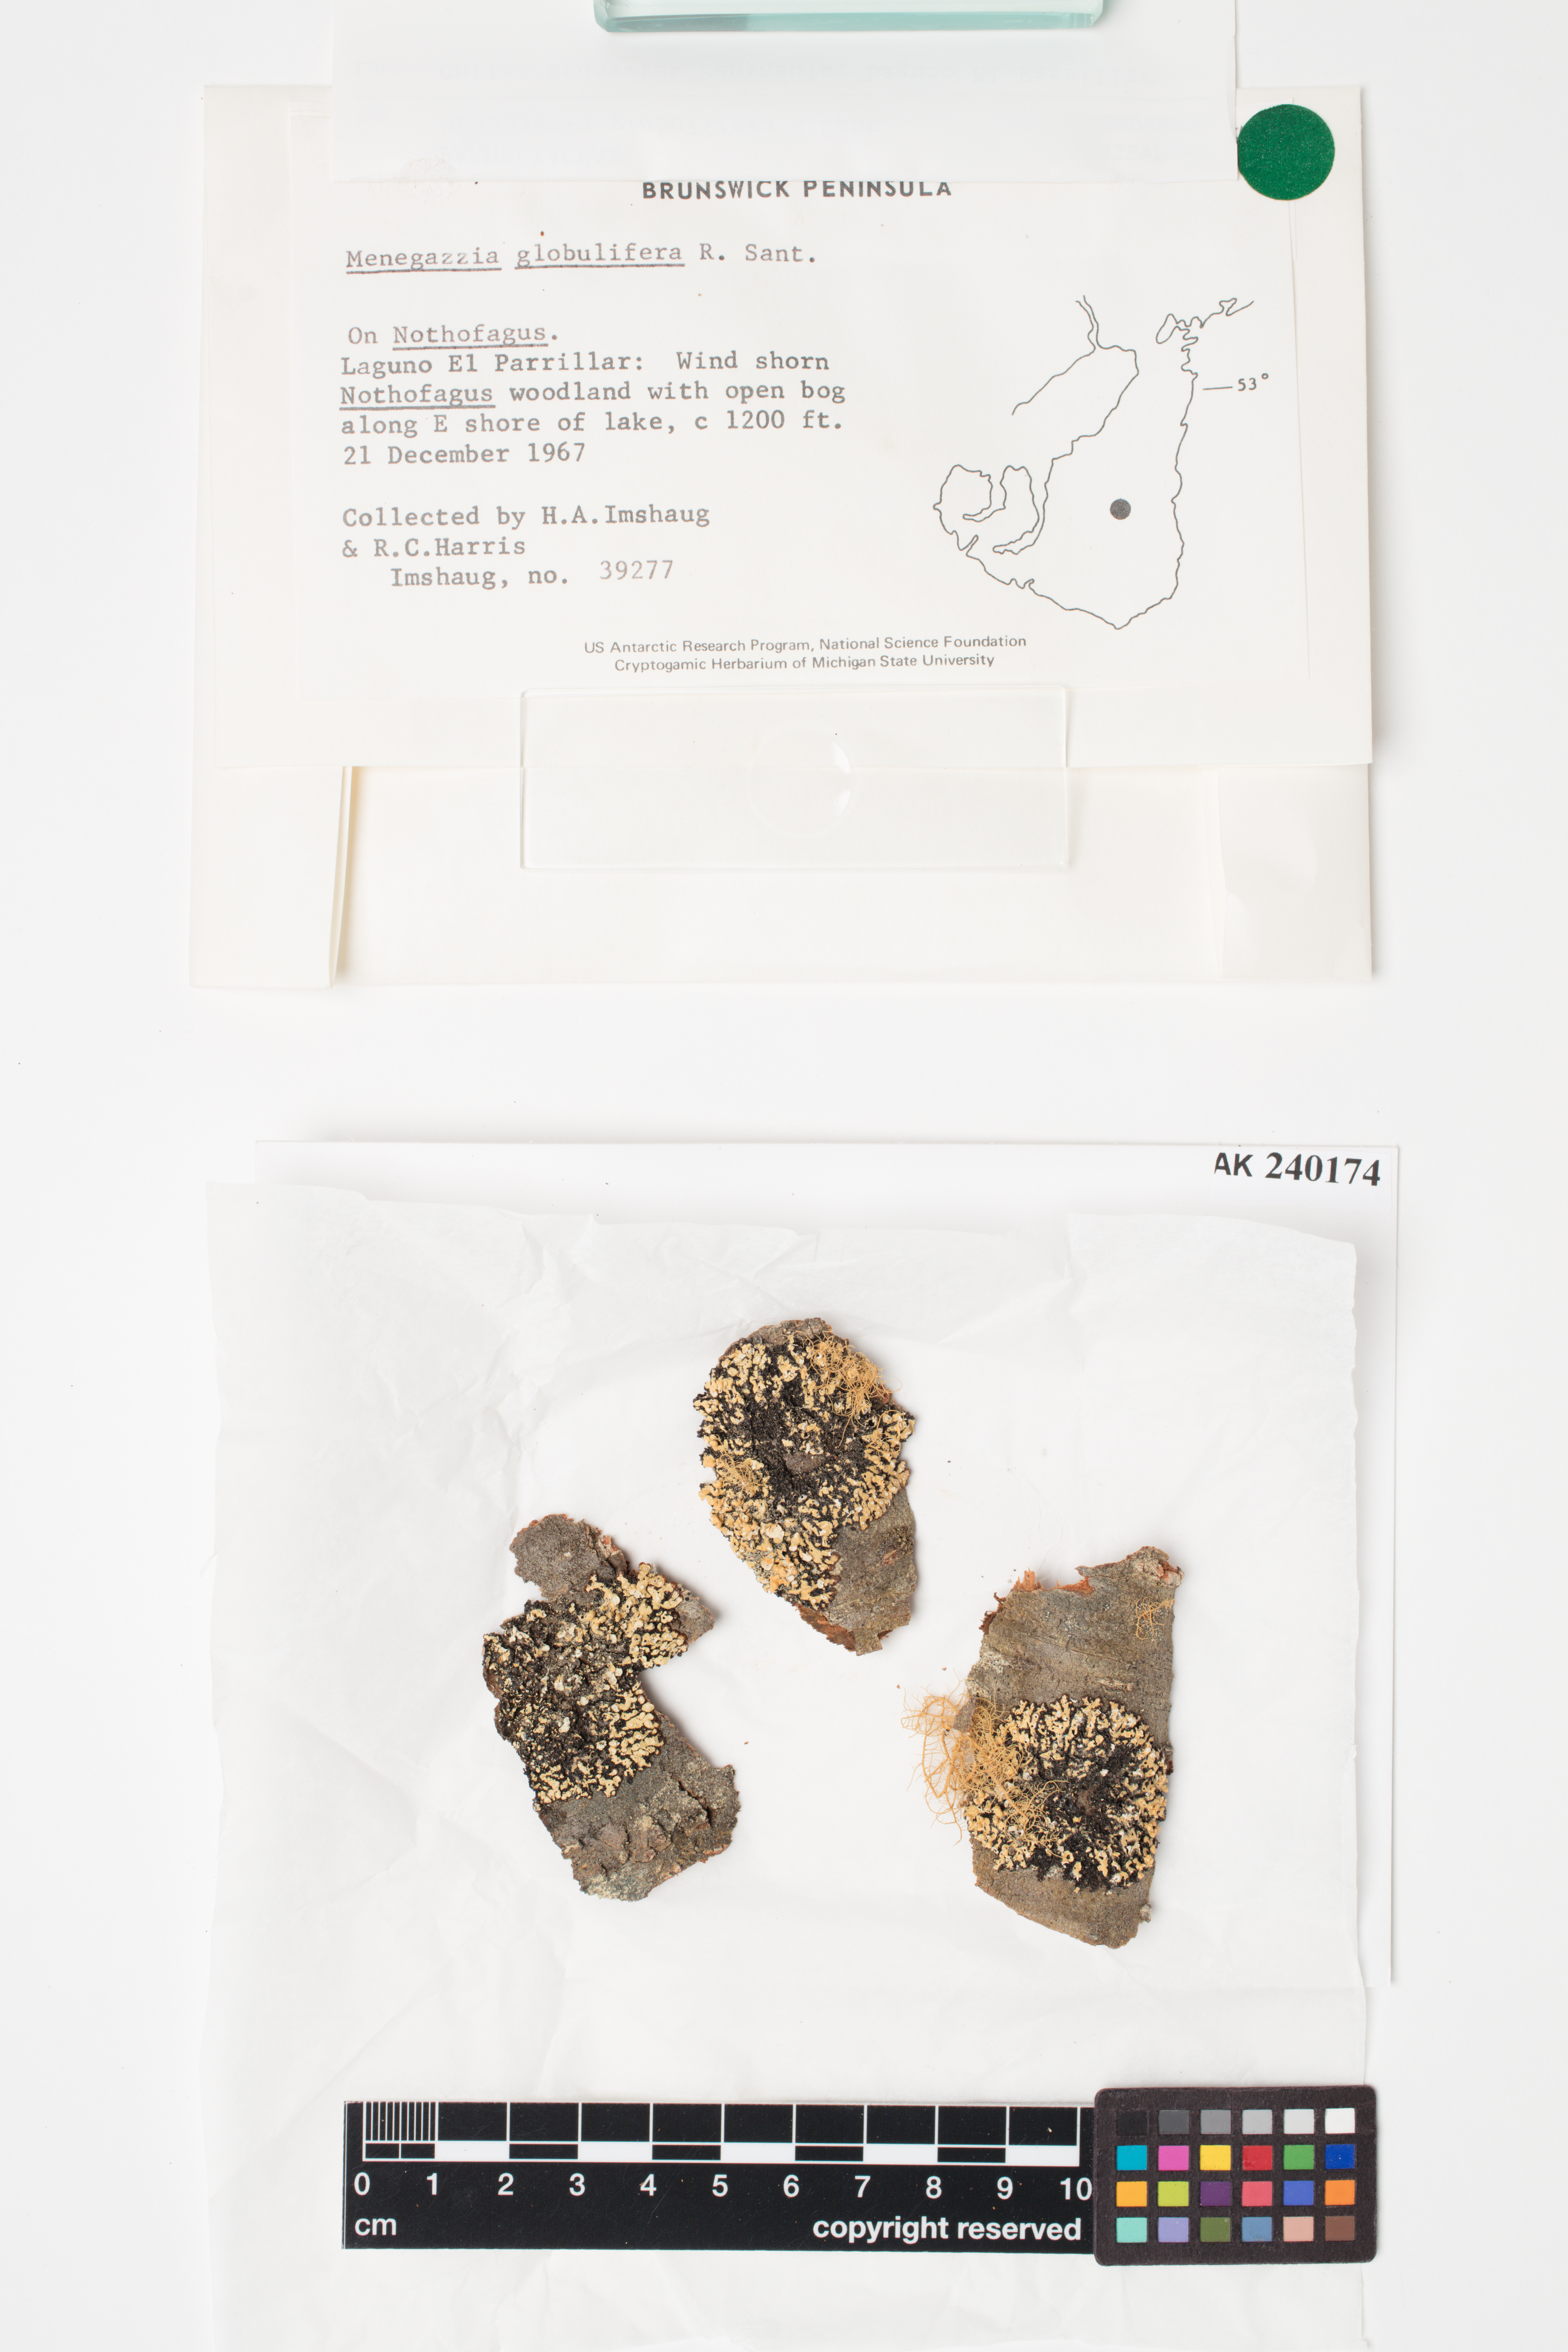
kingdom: Fungi
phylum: Ascomycota
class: Lecanoromycetes
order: Lecanorales
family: Parmeliaceae
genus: Menegazzia
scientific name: Menegazzia globulifera
